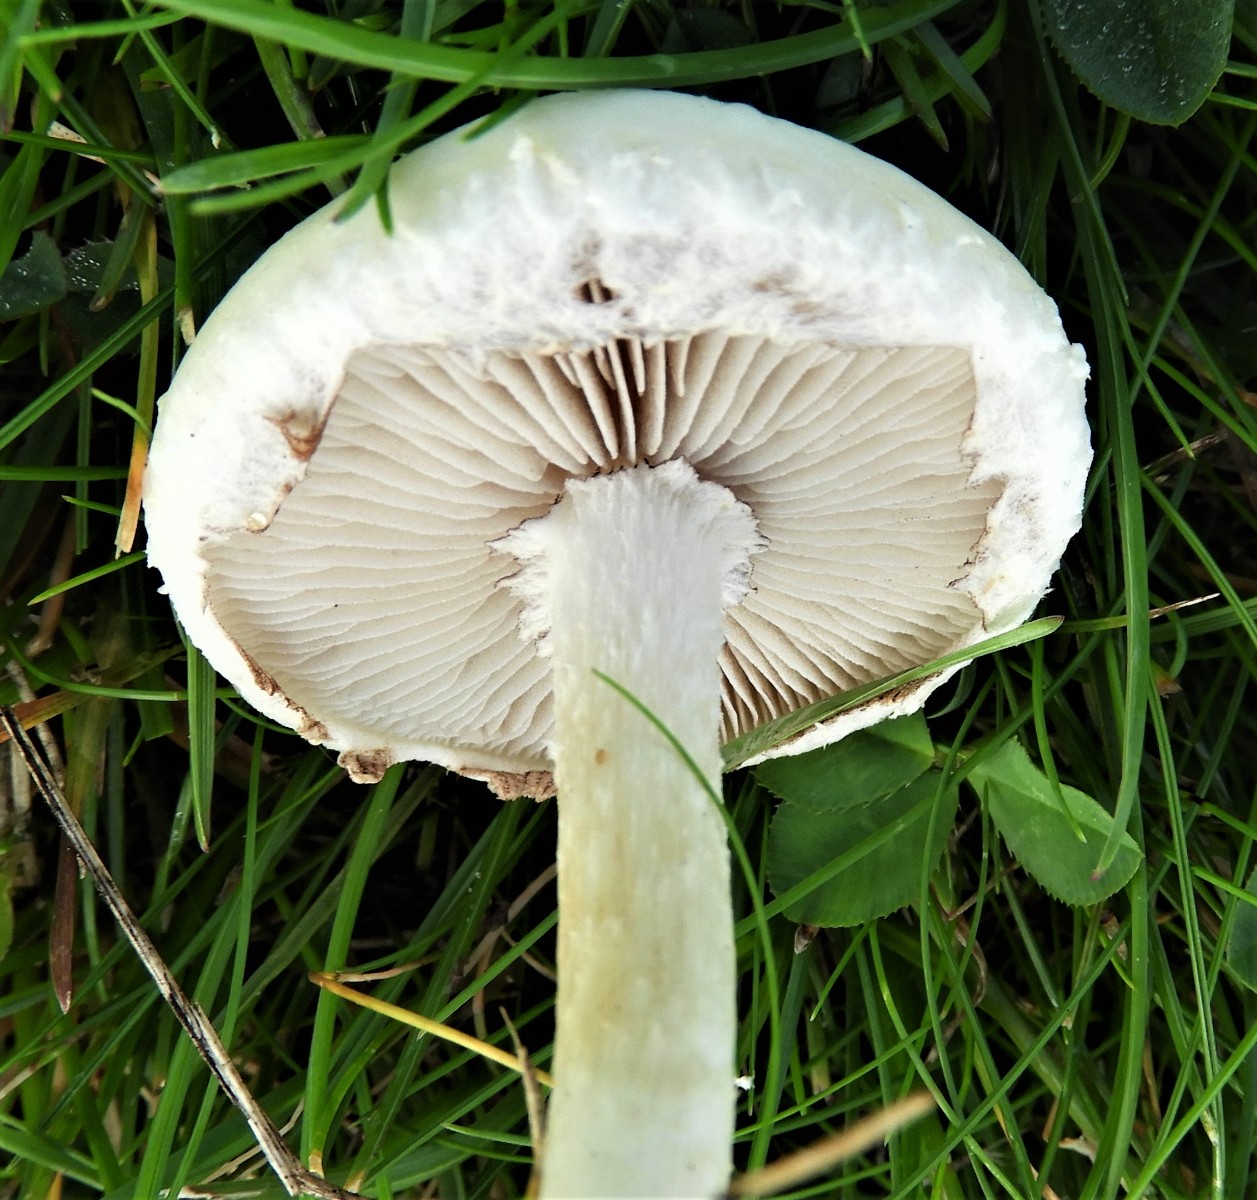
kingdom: Fungi
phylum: Basidiomycota
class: Agaricomycetes
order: Agaricales
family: Strophariaceae
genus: Agrocybe
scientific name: Agrocybe dura
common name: fastkødet agerhat
